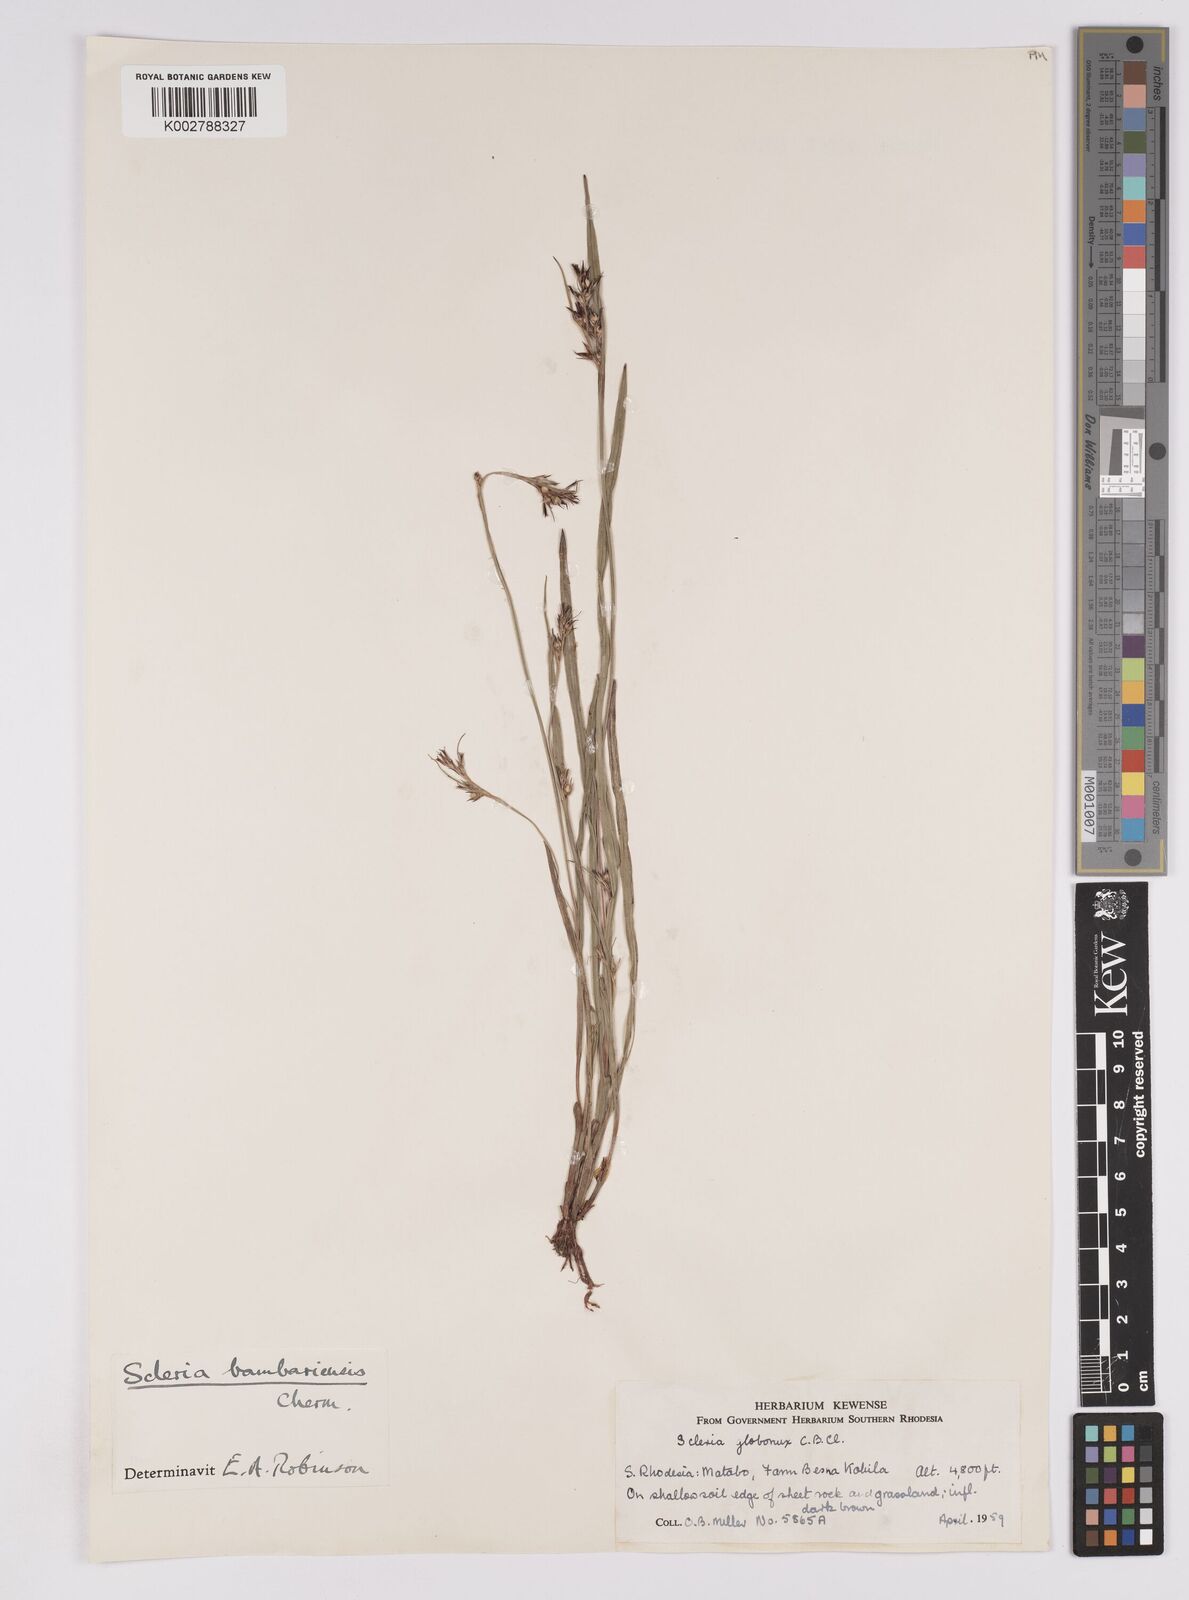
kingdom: Plantae
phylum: Tracheophyta
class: Liliopsida
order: Poales
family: Cyperaceae
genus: Scleria
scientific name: Scleria bambariensis
